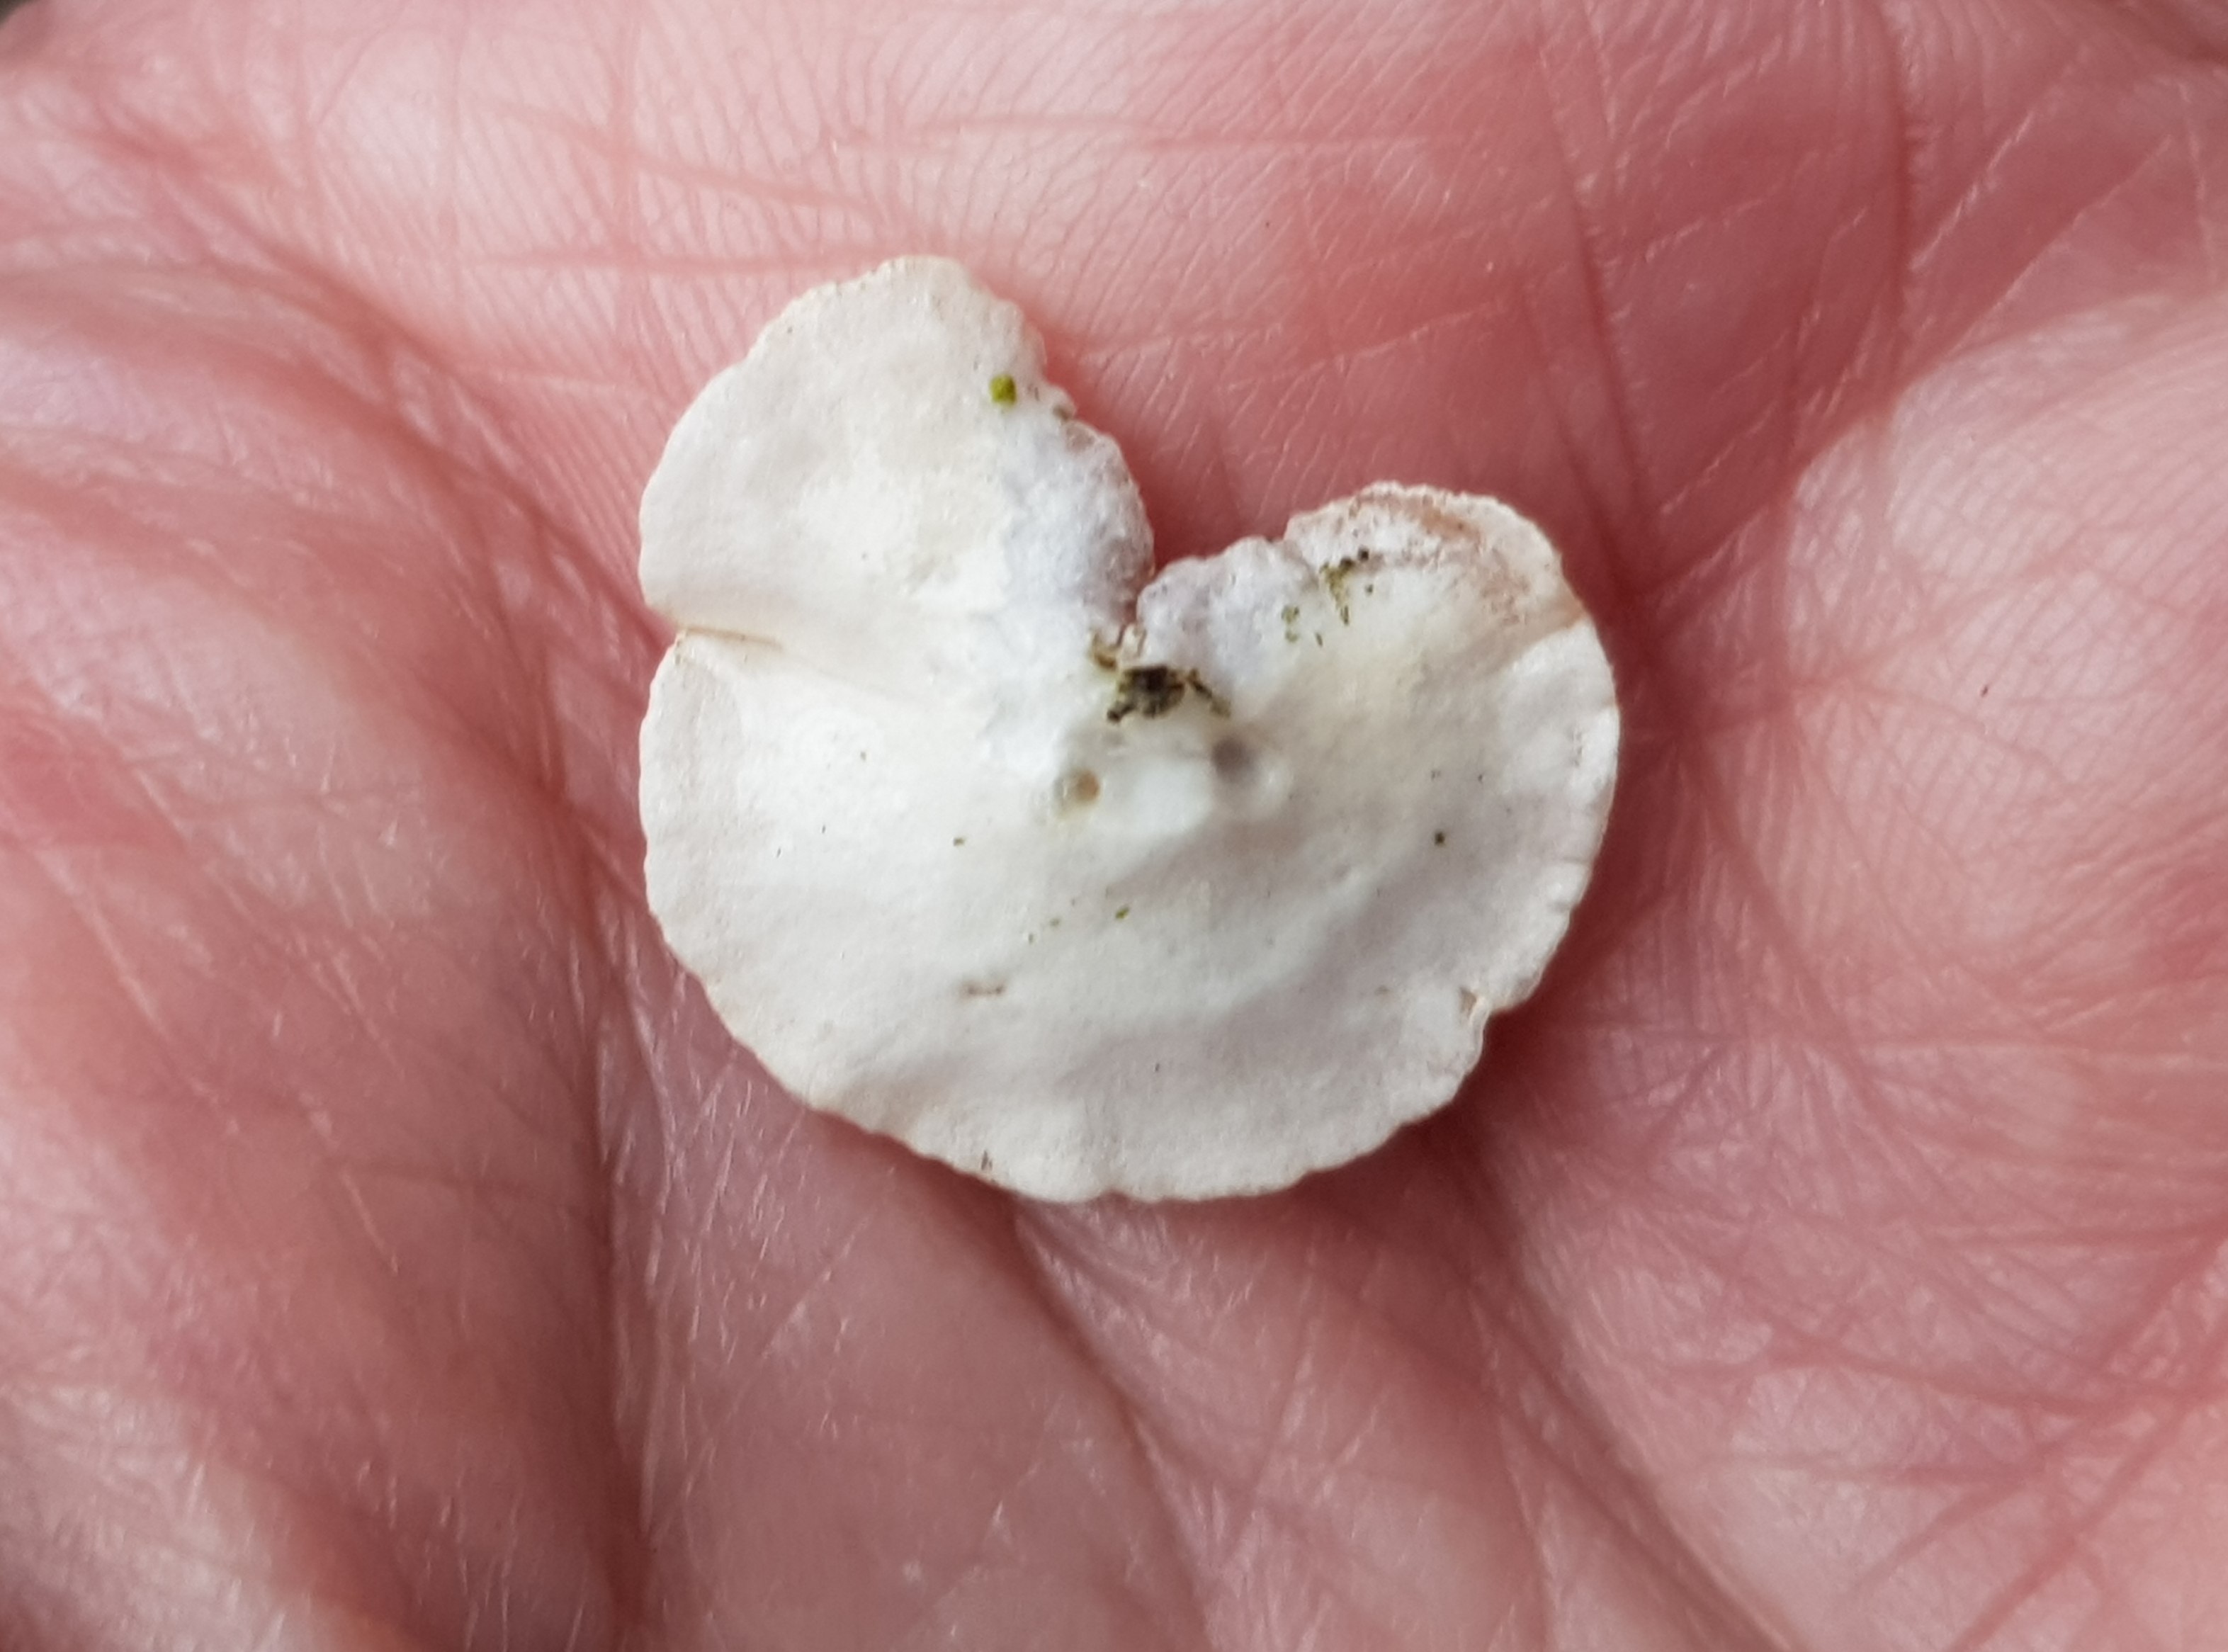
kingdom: Fungi
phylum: Basidiomycota
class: Agaricomycetes
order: Agaricales
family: Crepidotaceae
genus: Crepidotus
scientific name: Crepidotus
